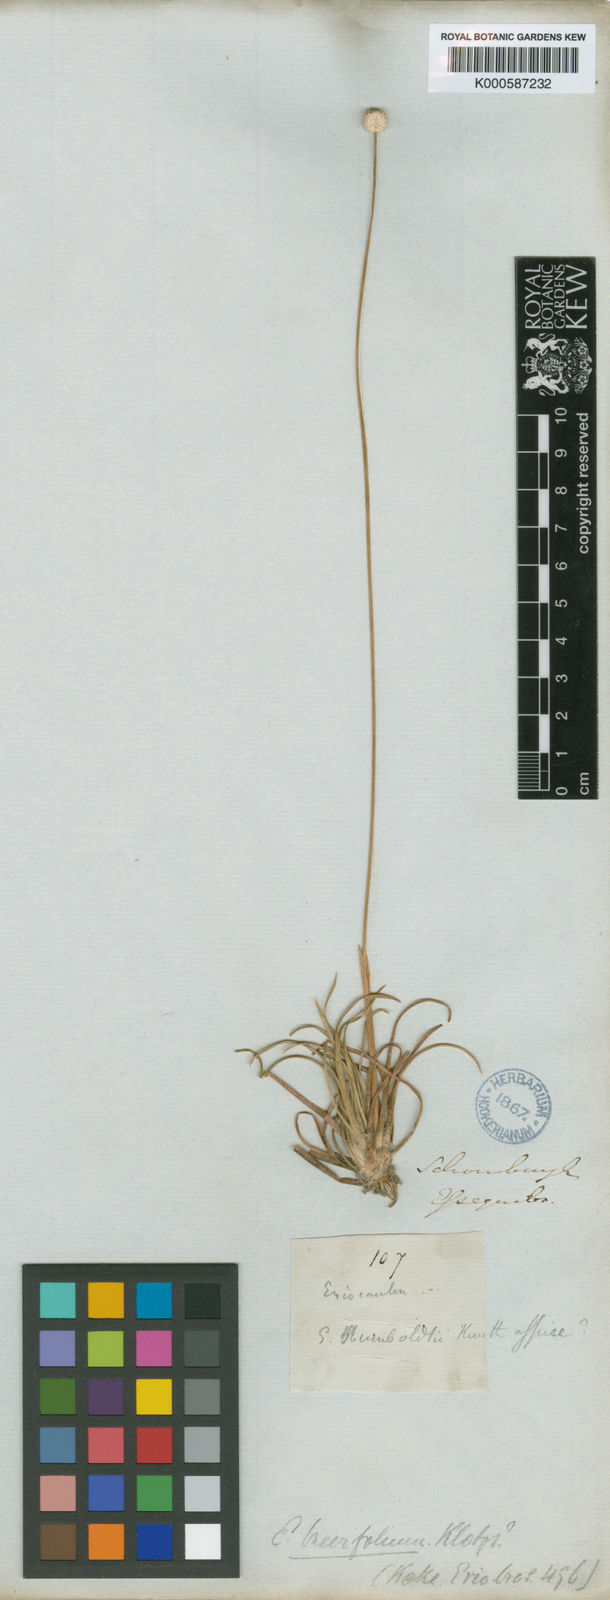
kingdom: Plantae
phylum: Tracheophyta
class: Liliopsida
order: Poales
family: Eriocaulaceae
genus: Eriocaulon
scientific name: Eriocaulon
